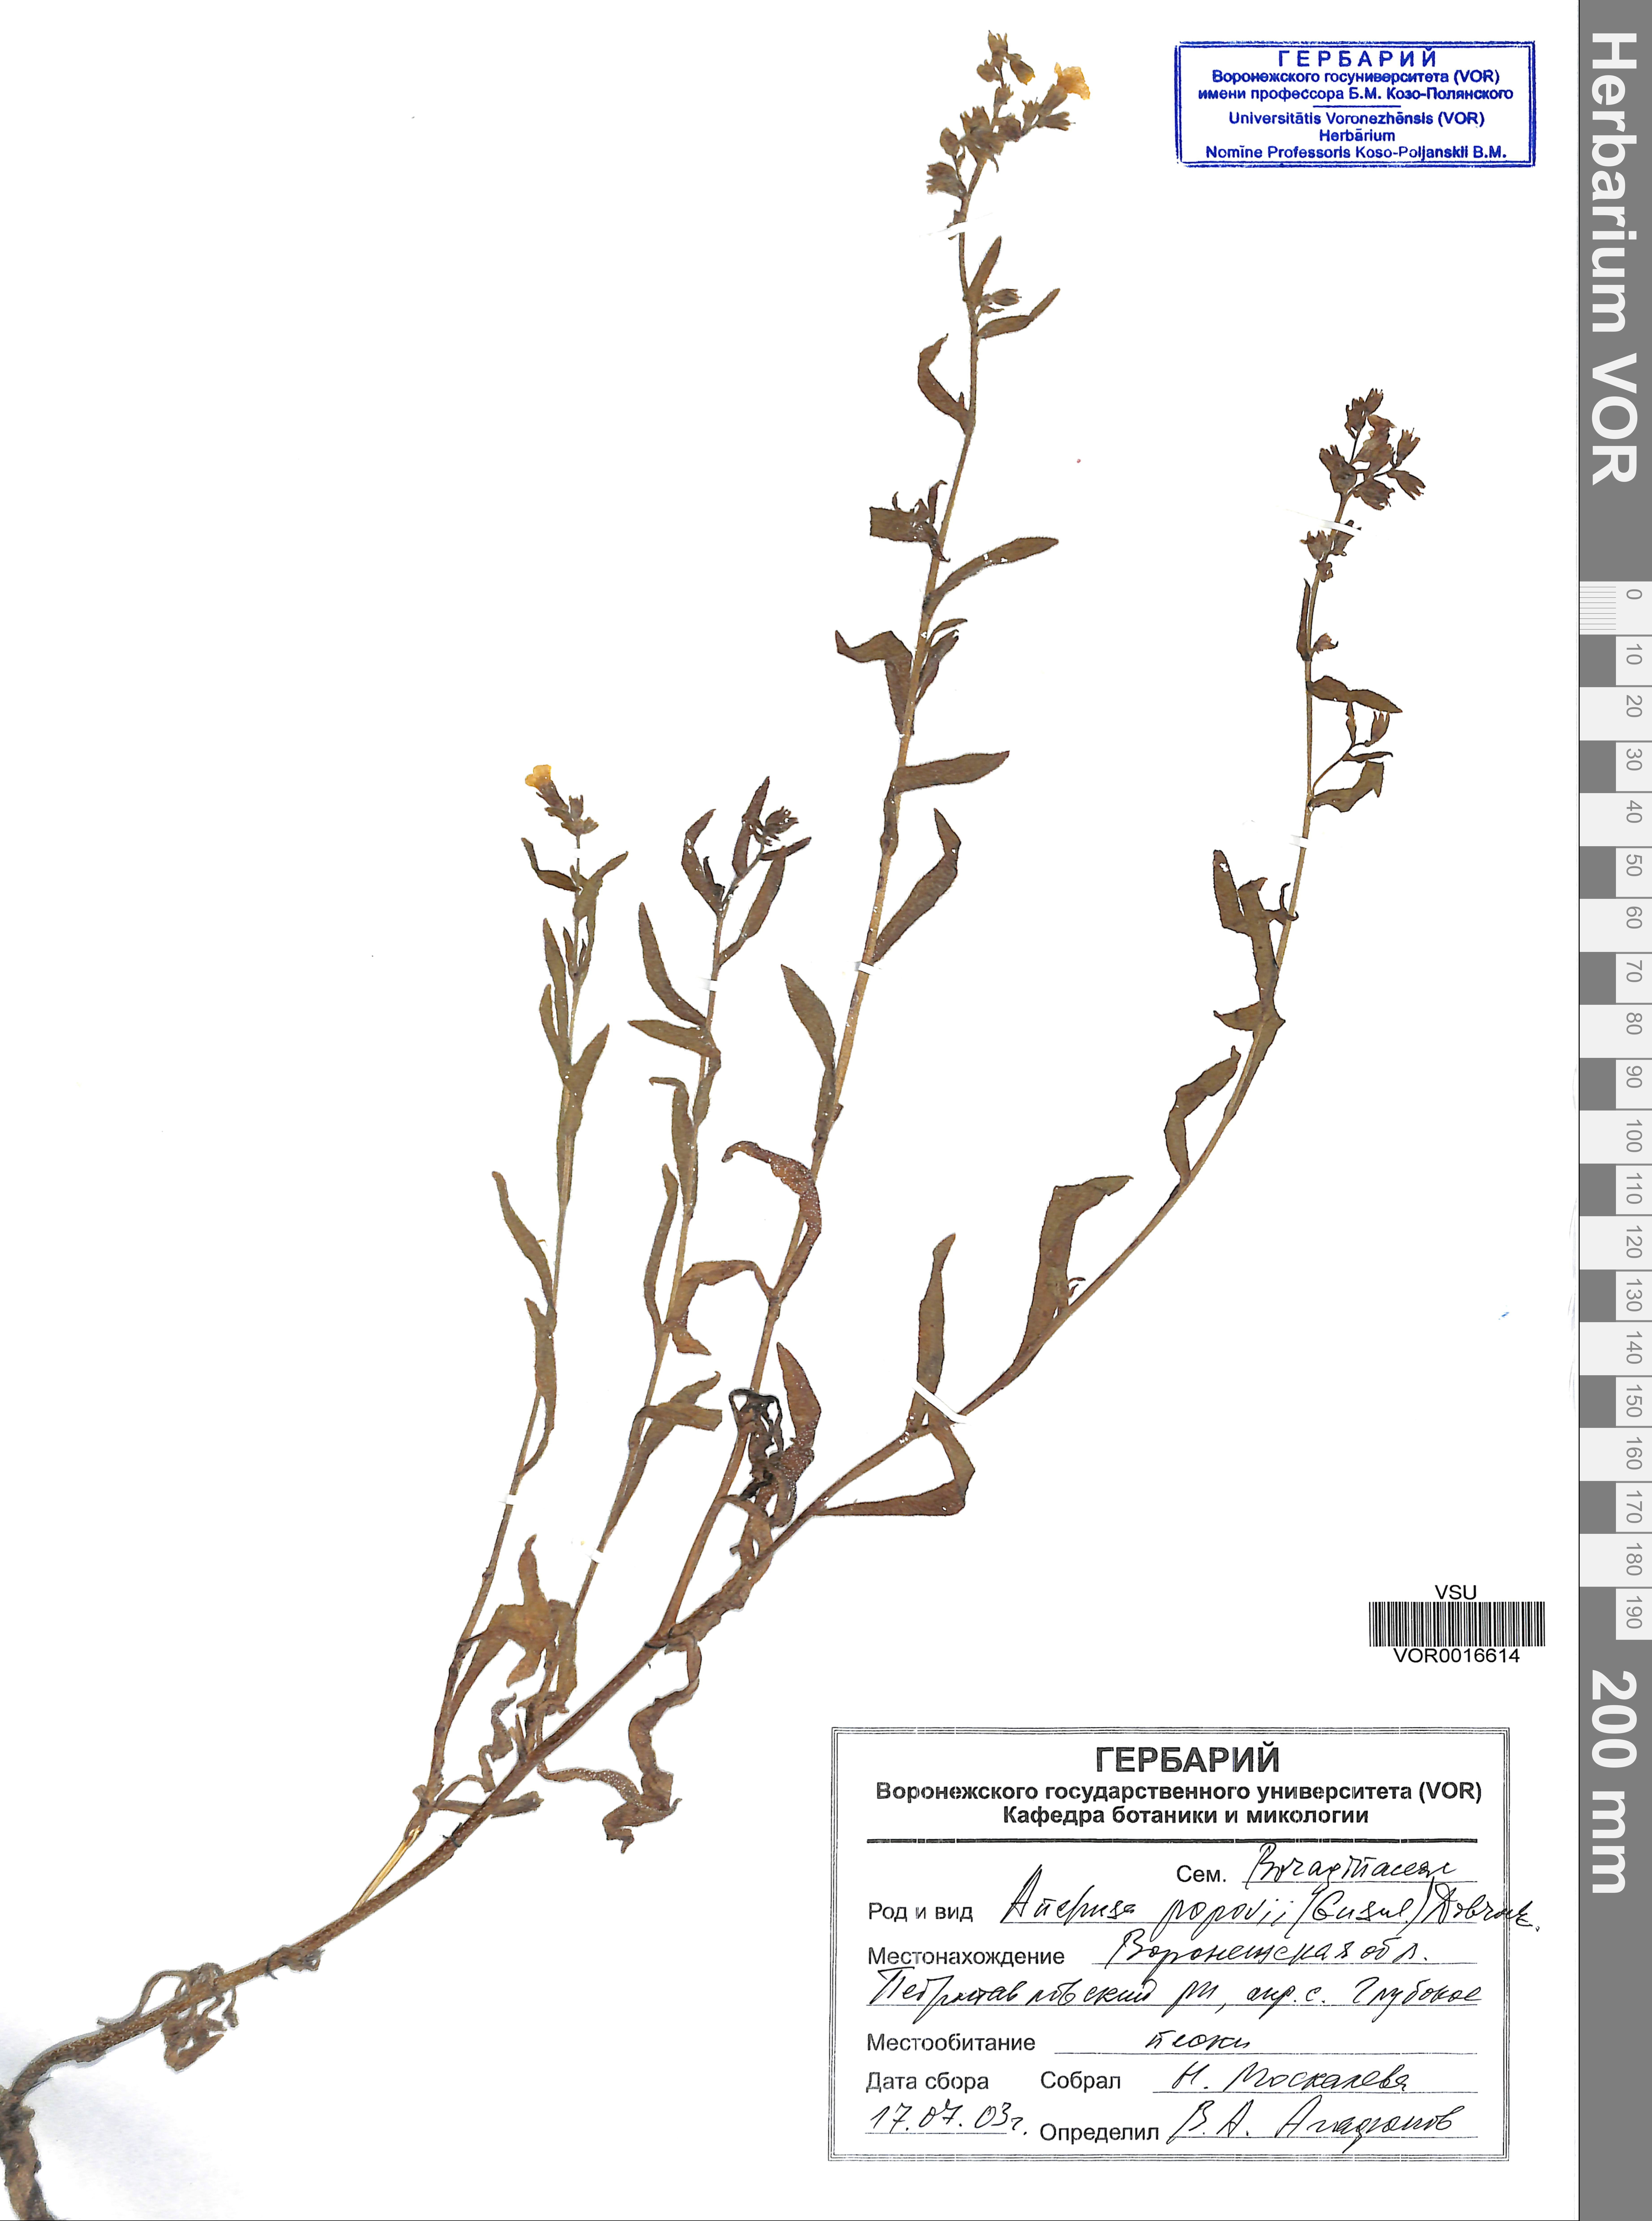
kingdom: Plantae
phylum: Tracheophyta
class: Magnoliopsida
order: Boraginales
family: Boraginaceae
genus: Anchusa
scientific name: Anchusa ochroleuca
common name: Yellow alkanet
